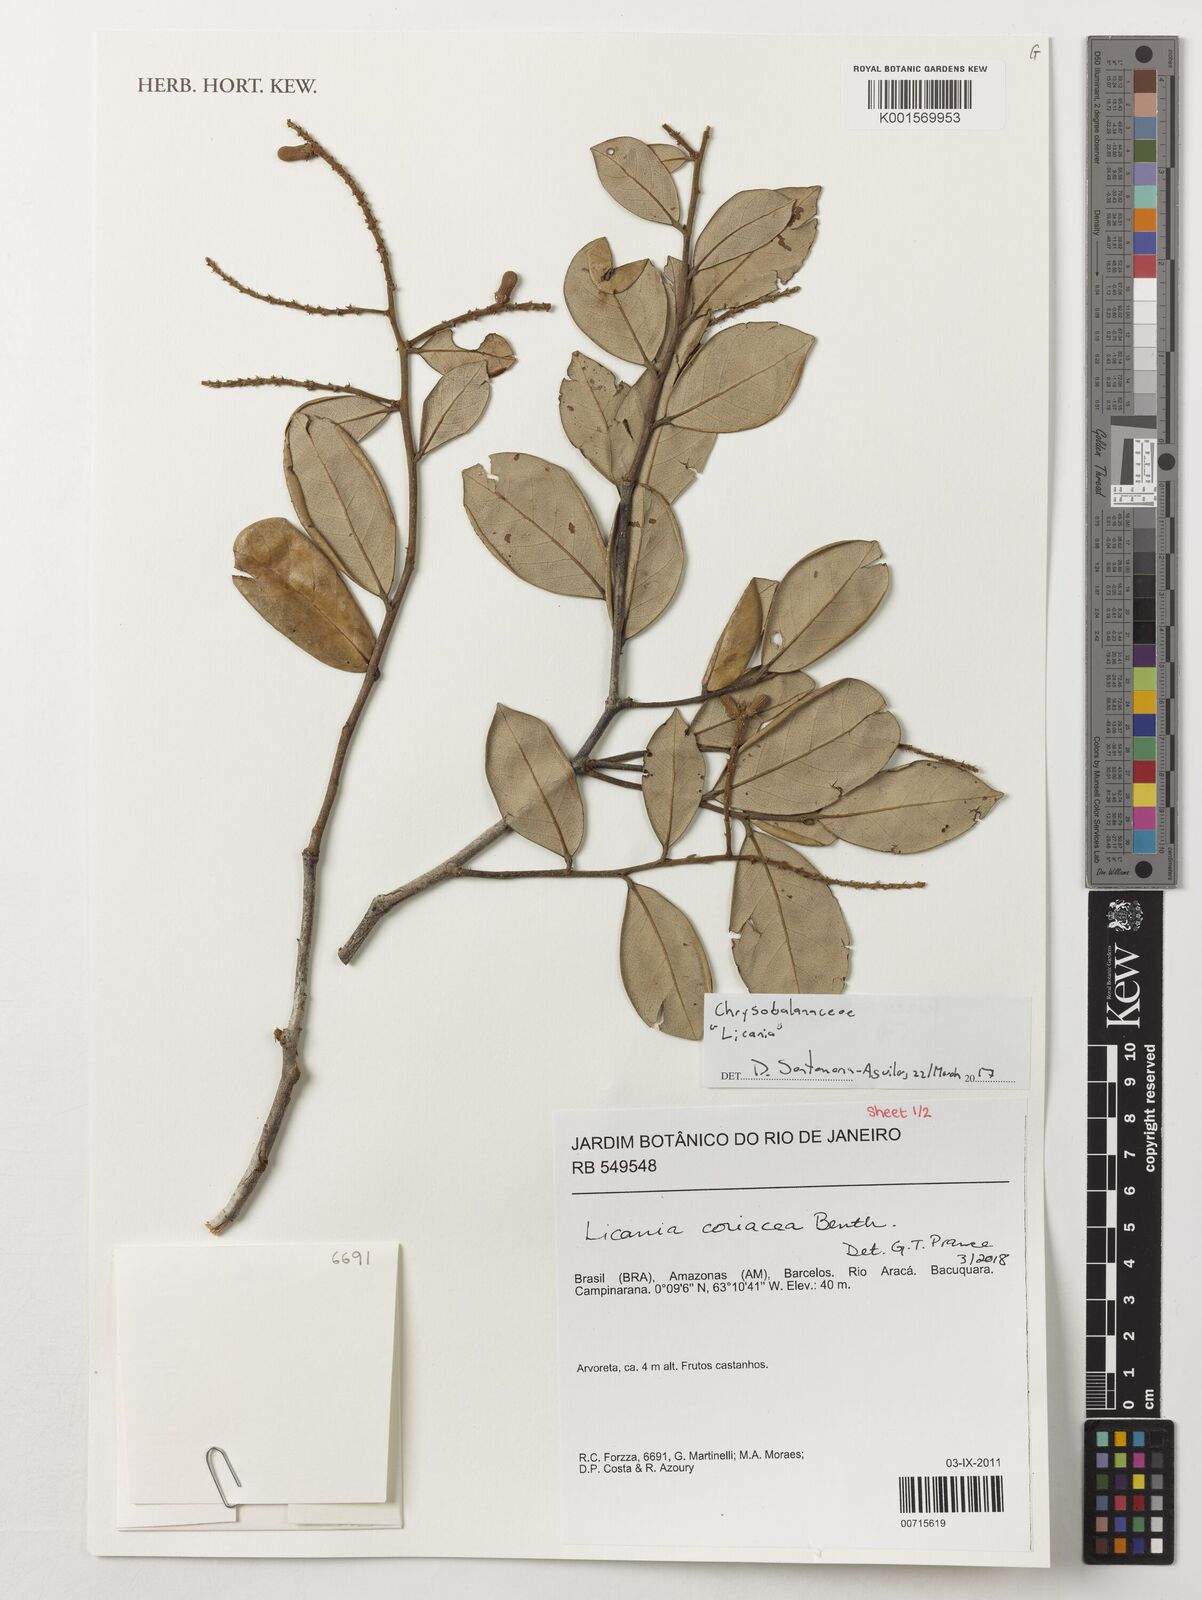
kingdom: Plantae
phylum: Tracheophyta
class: Magnoliopsida
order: Malpighiales
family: Chrysobalanaceae
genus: Licania
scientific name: Licania coriacea
